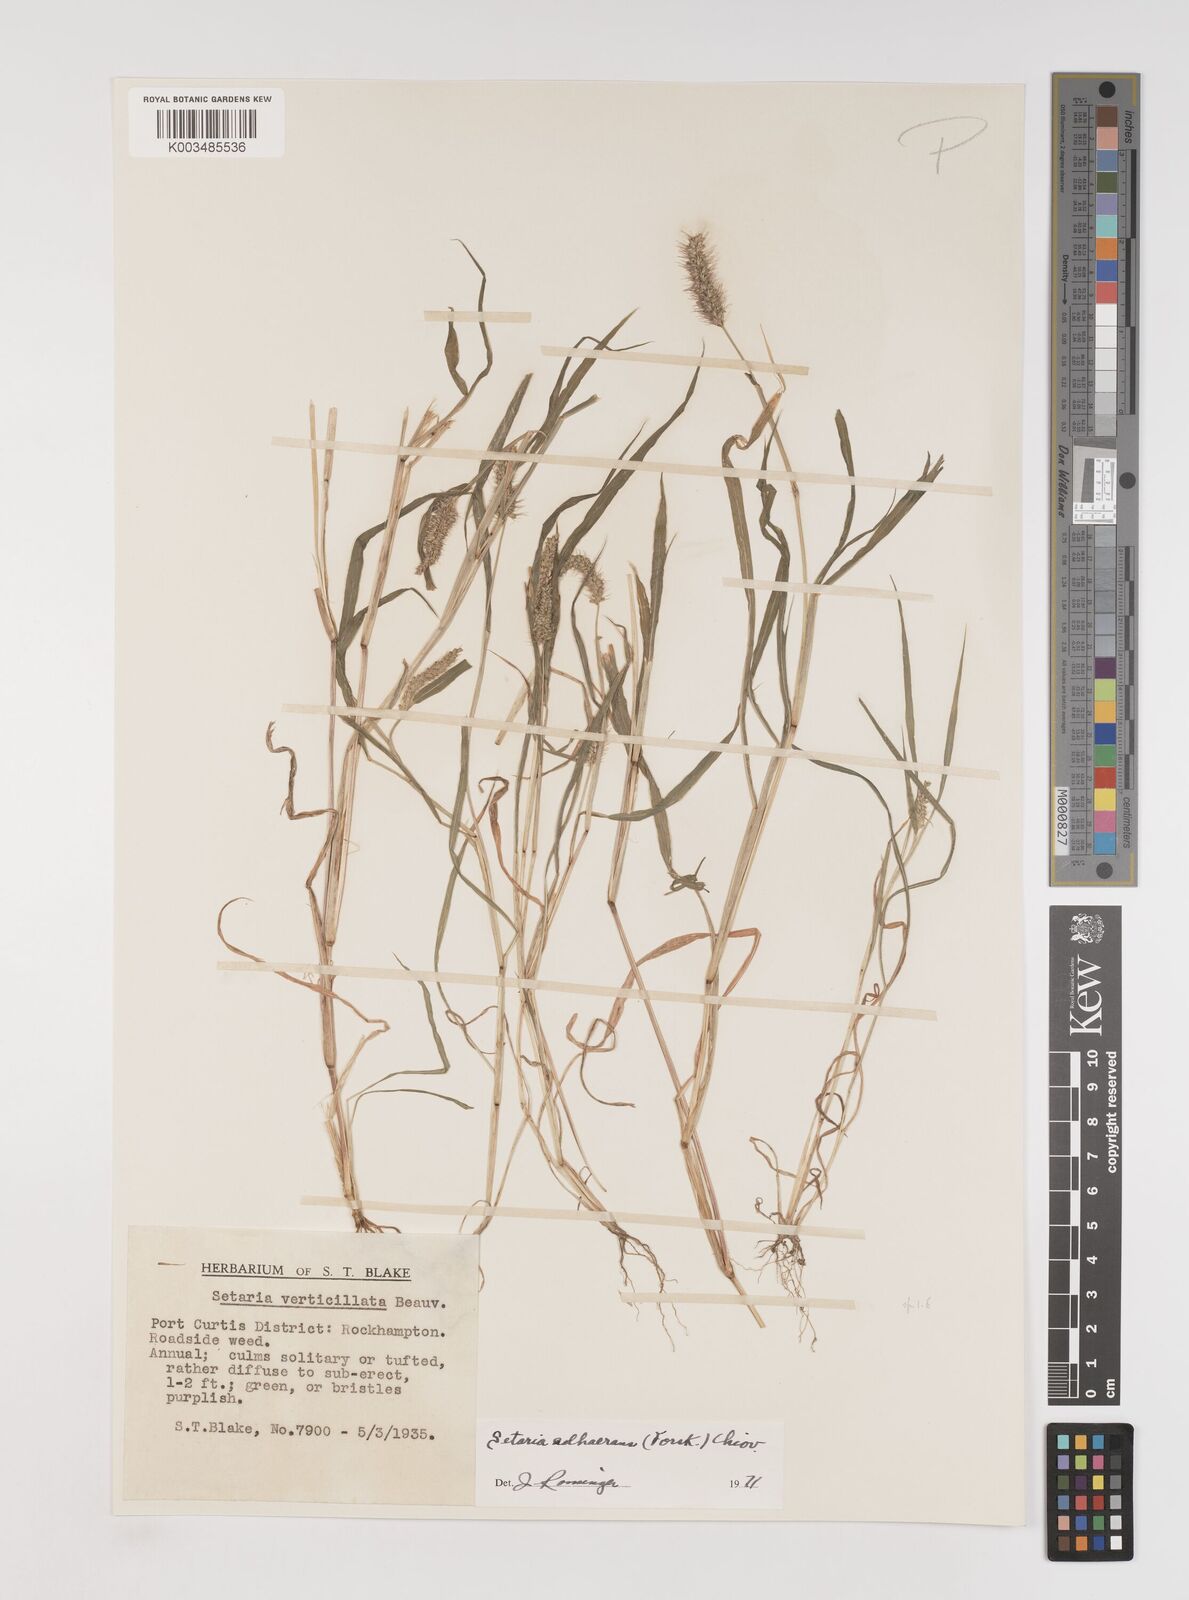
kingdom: Plantae
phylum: Tracheophyta
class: Liliopsida
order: Poales
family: Poaceae
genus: Setaria
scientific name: Setaria verticillata
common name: Hooked bristlegrass
